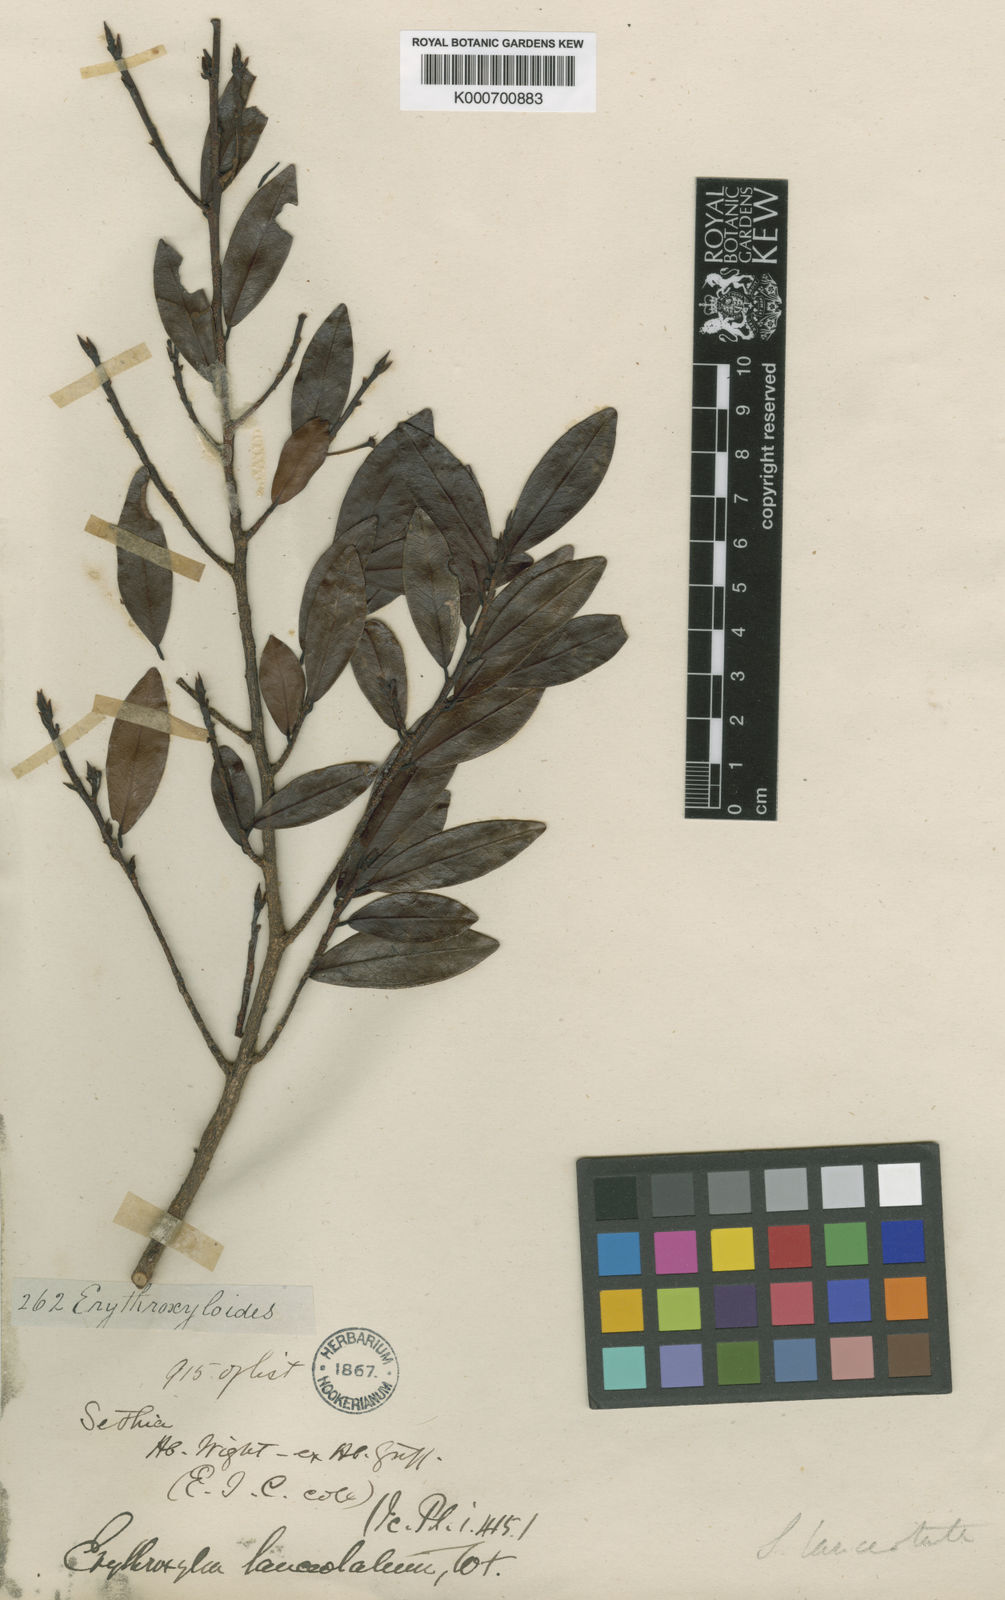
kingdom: Plantae
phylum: Tracheophyta
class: Magnoliopsida
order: Malpighiales
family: Erythroxylaceae
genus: Erythroxylum
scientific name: Erythroxylum lanceolatum
